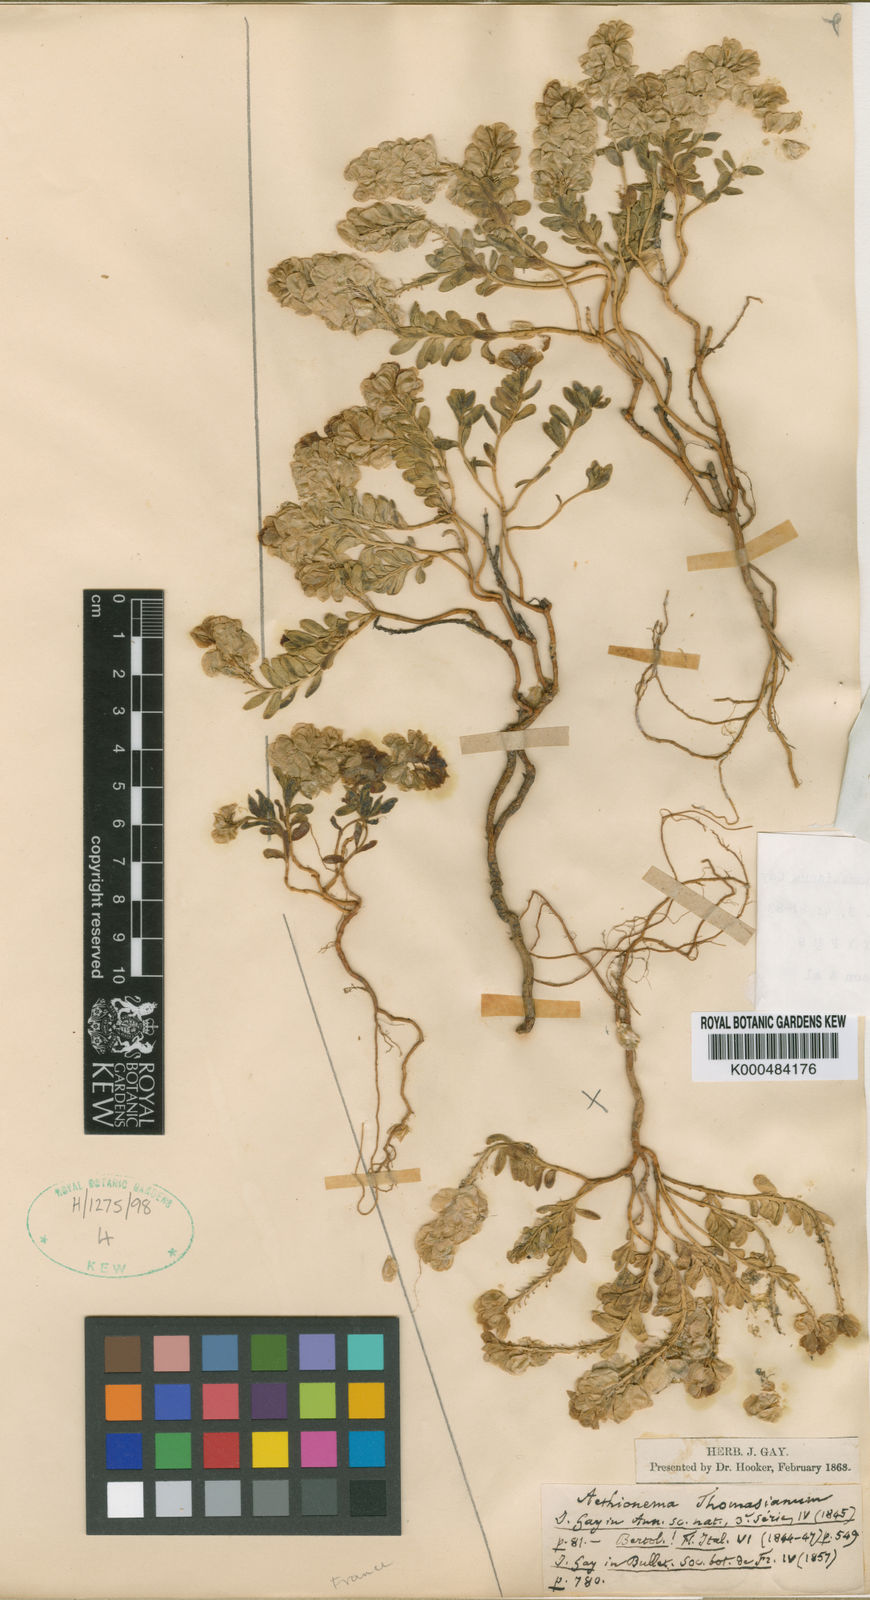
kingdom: Plantae
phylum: Tracheophyta
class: Magnoliopsida
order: Brassicales
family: Brassicaceae
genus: Aethionema
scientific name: Aethionema thomasianum
